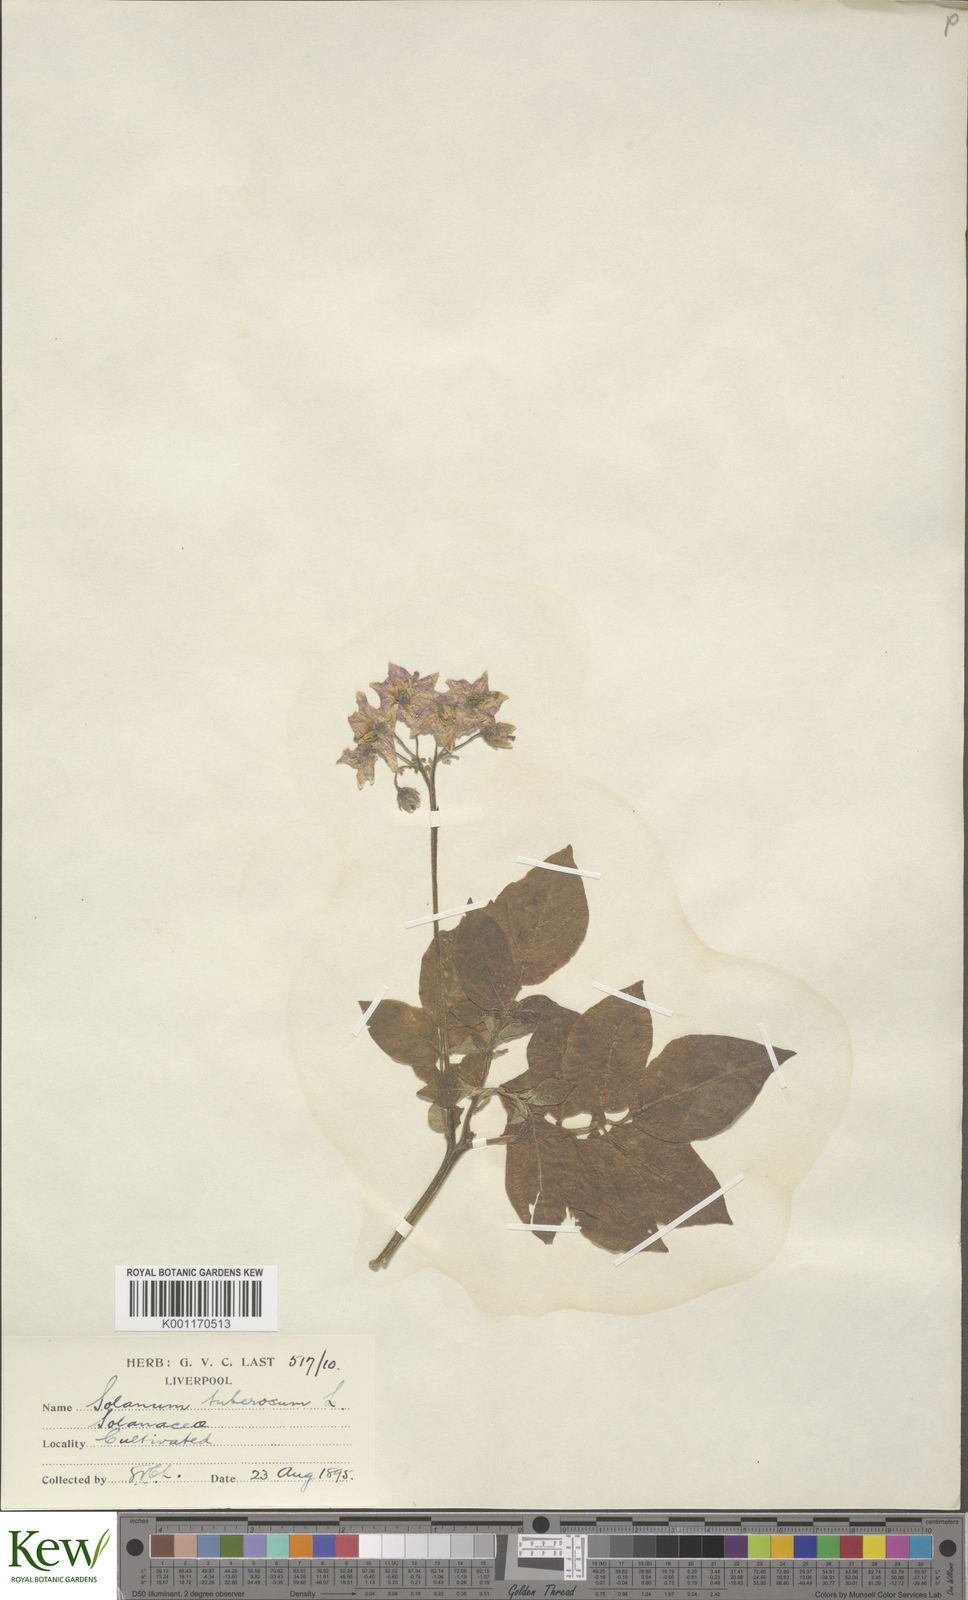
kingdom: Plantae
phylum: Tracheophyta
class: Magnoliopsida
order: Solanales
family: Solanaceae
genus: Solanum
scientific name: Solanum tuberosum
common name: Potato
